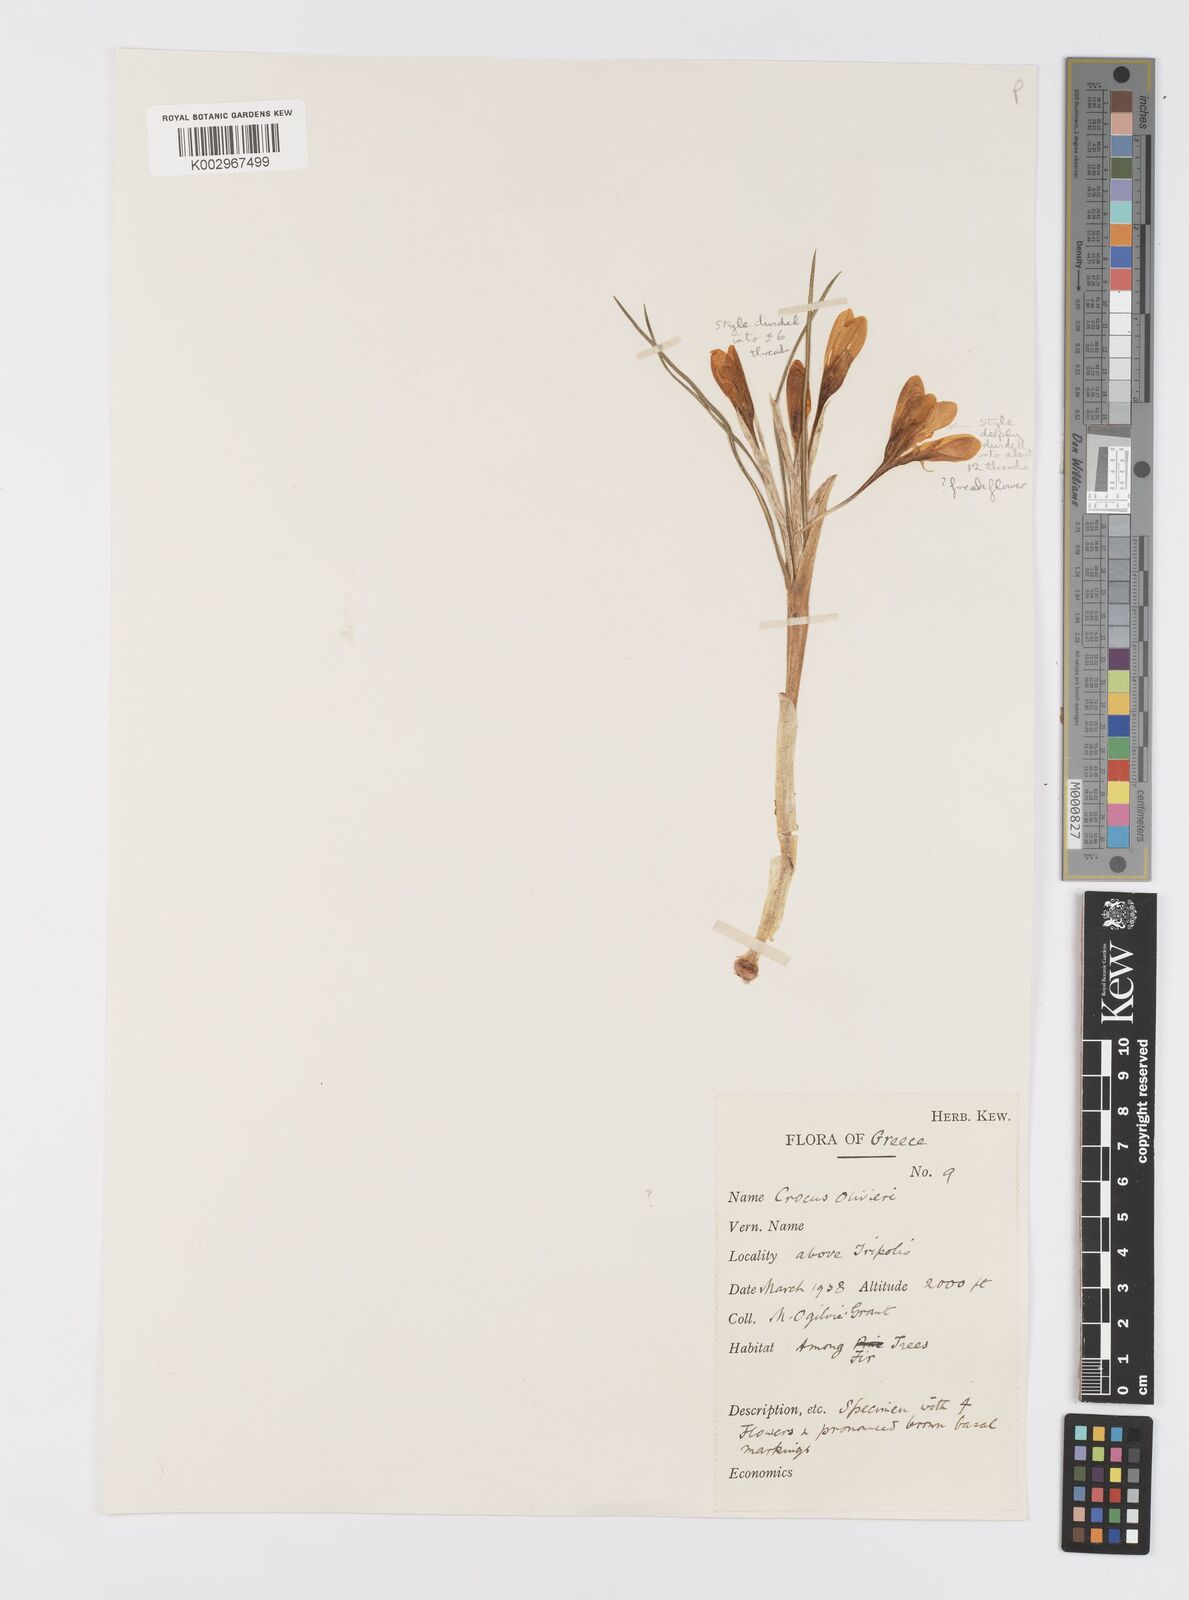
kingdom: Plantae
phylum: Tracheophyta
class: Liliopsida
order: Asparagales
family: Iridaceae
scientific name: Iridaceae
